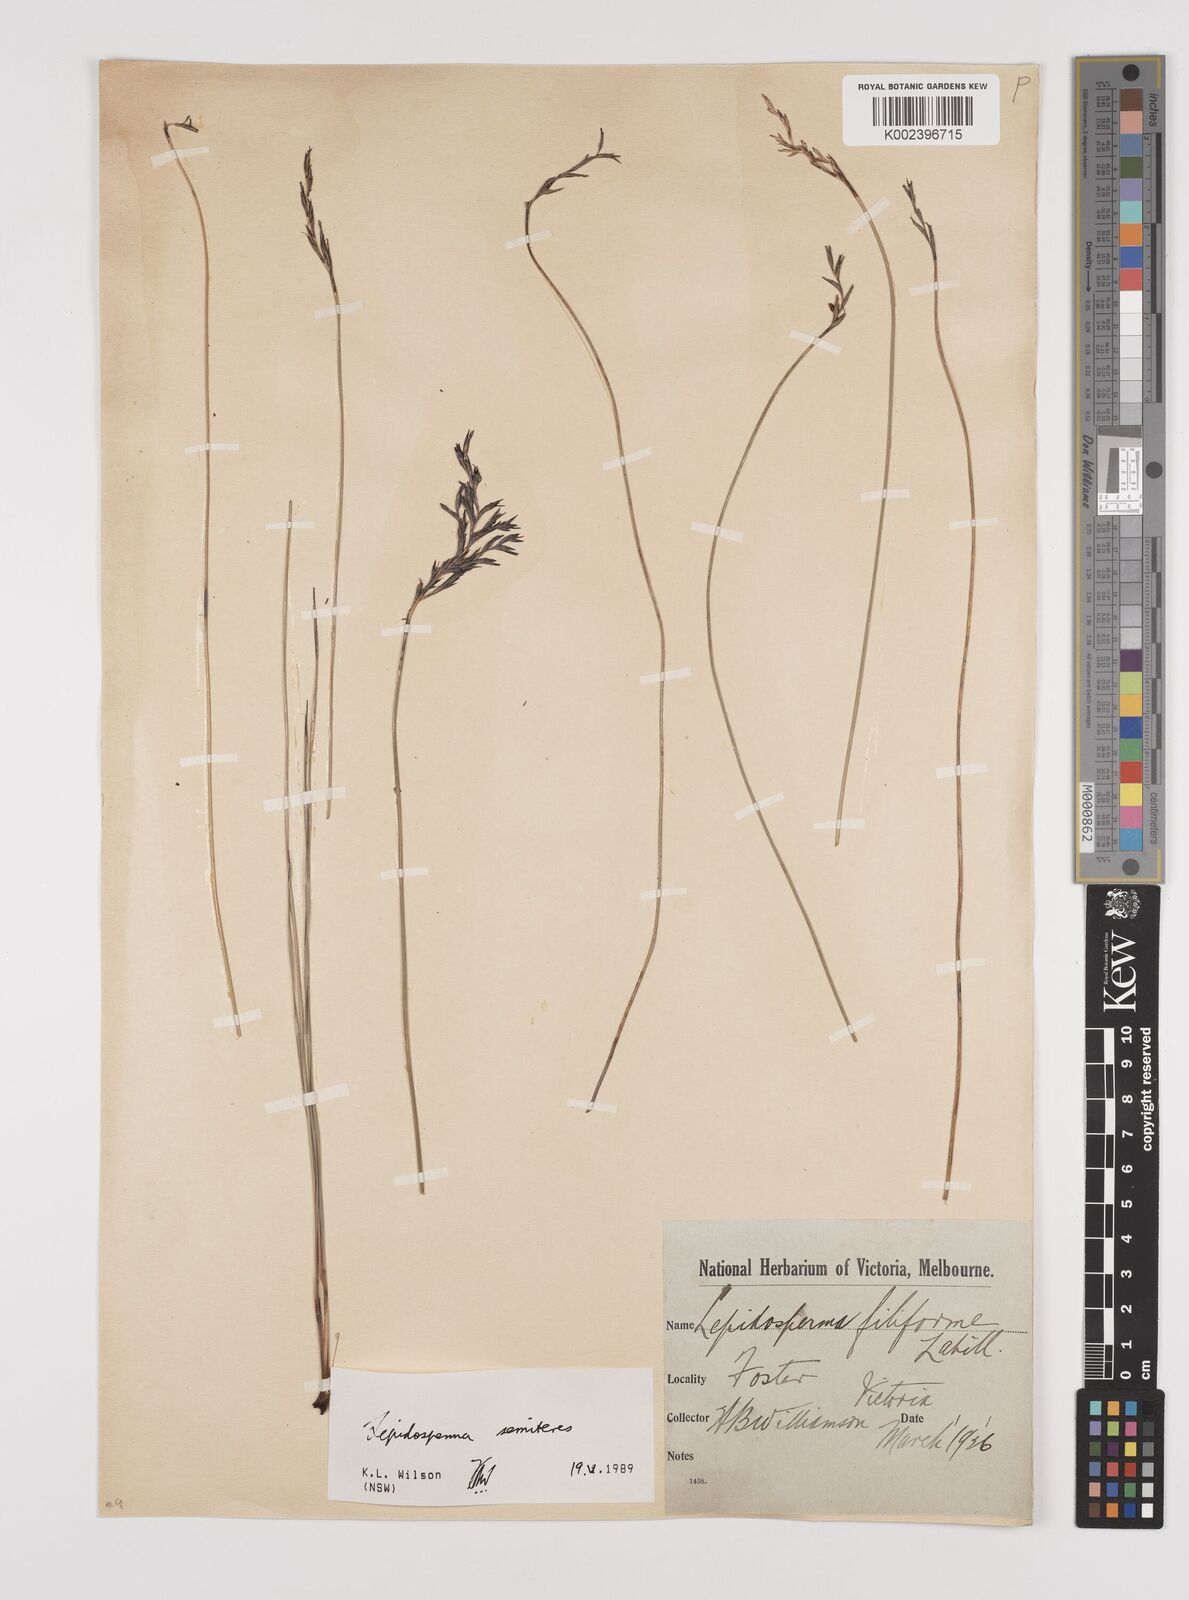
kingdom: Plantae
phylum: Tracheophyta
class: Liliopsida
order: Poales
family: Cyperaceae
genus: Lepidosperma
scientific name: Lepidosperma longitudinale
